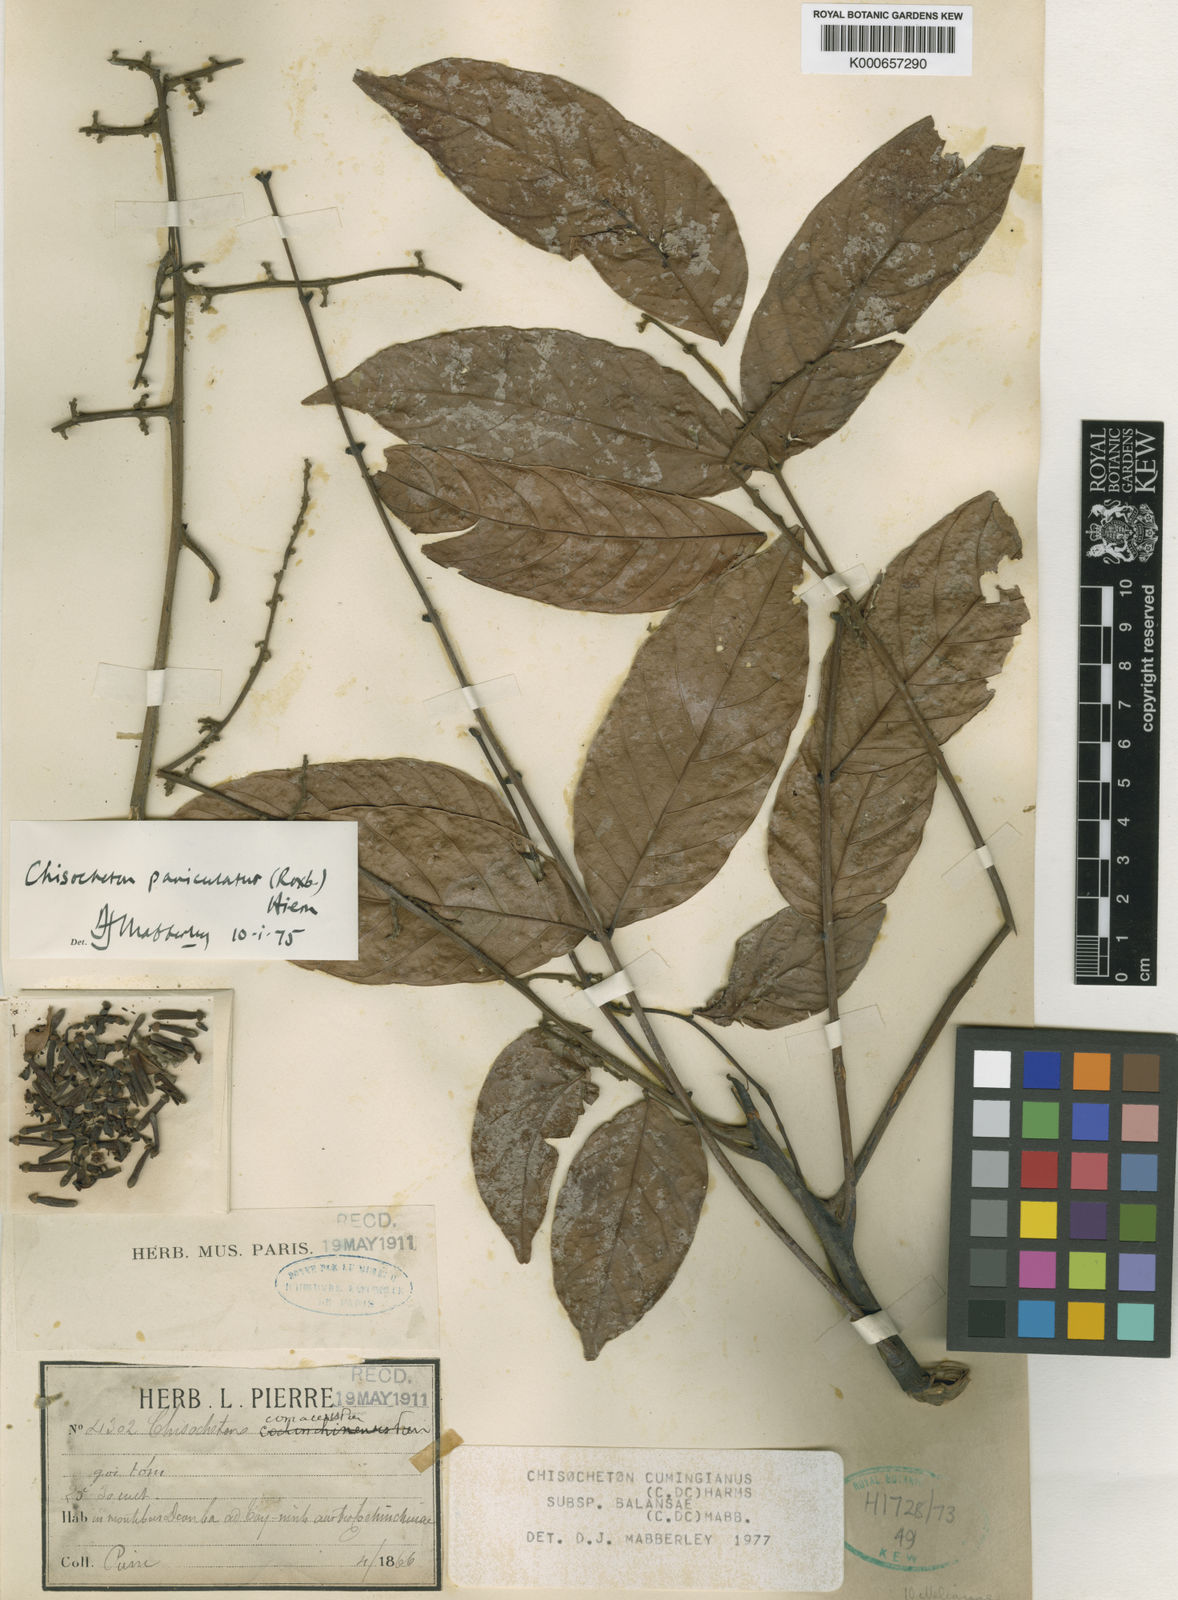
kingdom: Plantae
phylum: Tracheophyta
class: Magnoliopsida
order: Sapindales
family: Meliaceae
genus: Chisocheton
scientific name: Chisocheton cumingianus
